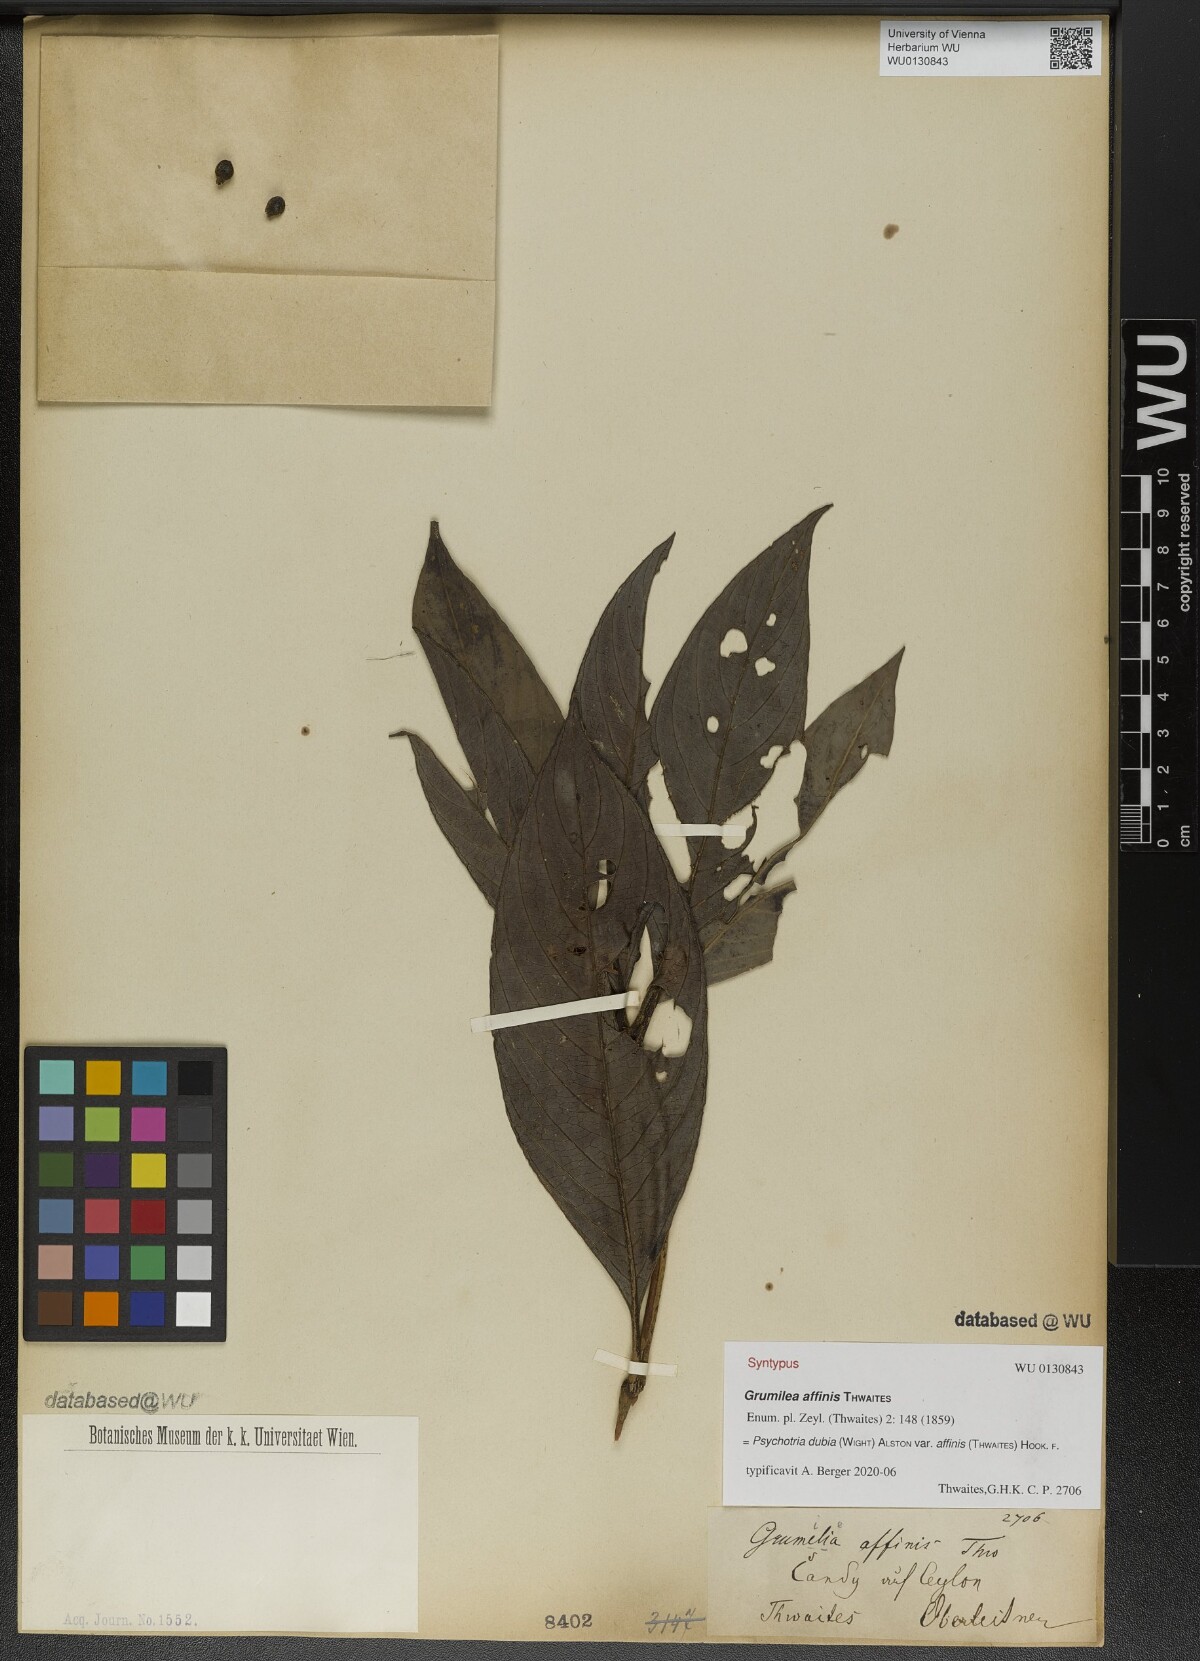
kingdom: Plantae
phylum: Tracheophyta
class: Magnoliopsida
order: Gentianales
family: Rubiaceae
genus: Psychotria
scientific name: Psychotria dubia
